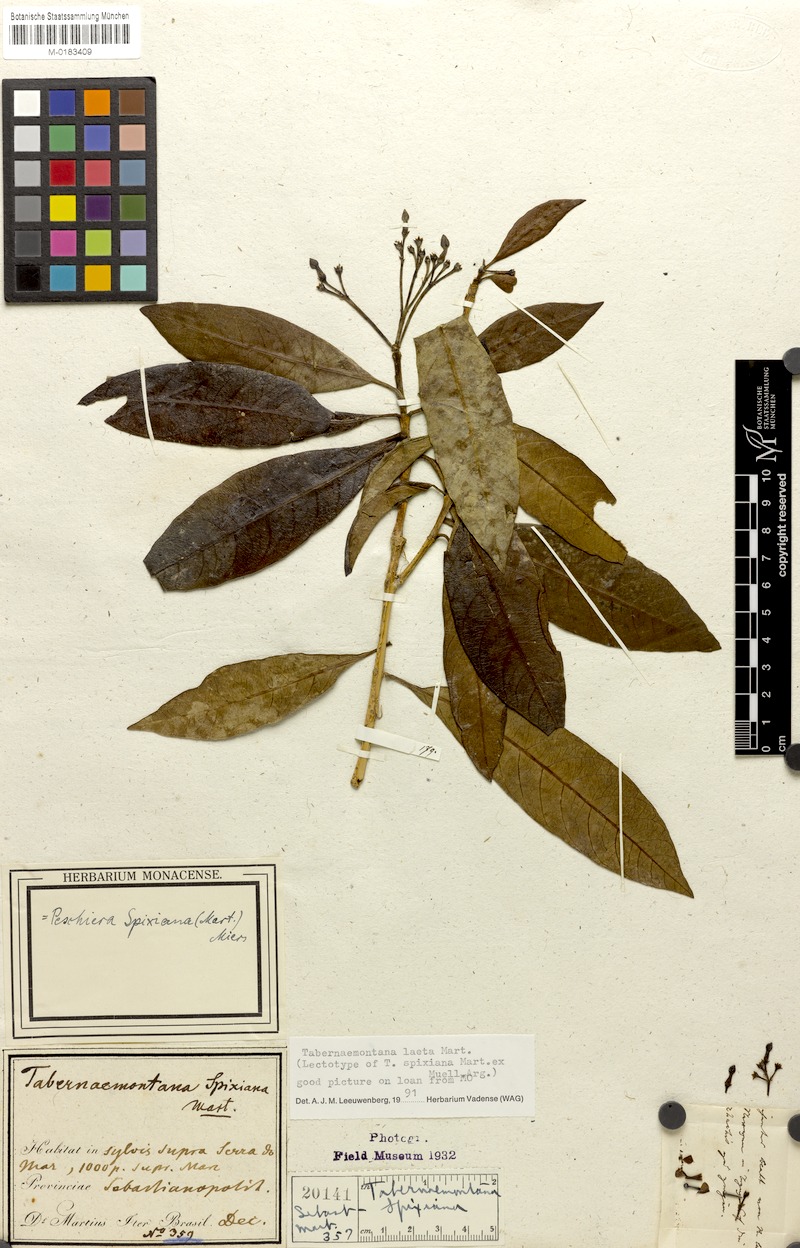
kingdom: Plantae
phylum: Tracheophyta
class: Magnoliopsida
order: Gentianales
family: Apocynaceae
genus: Tabernaemontana
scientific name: Tabernaemontana laeta
